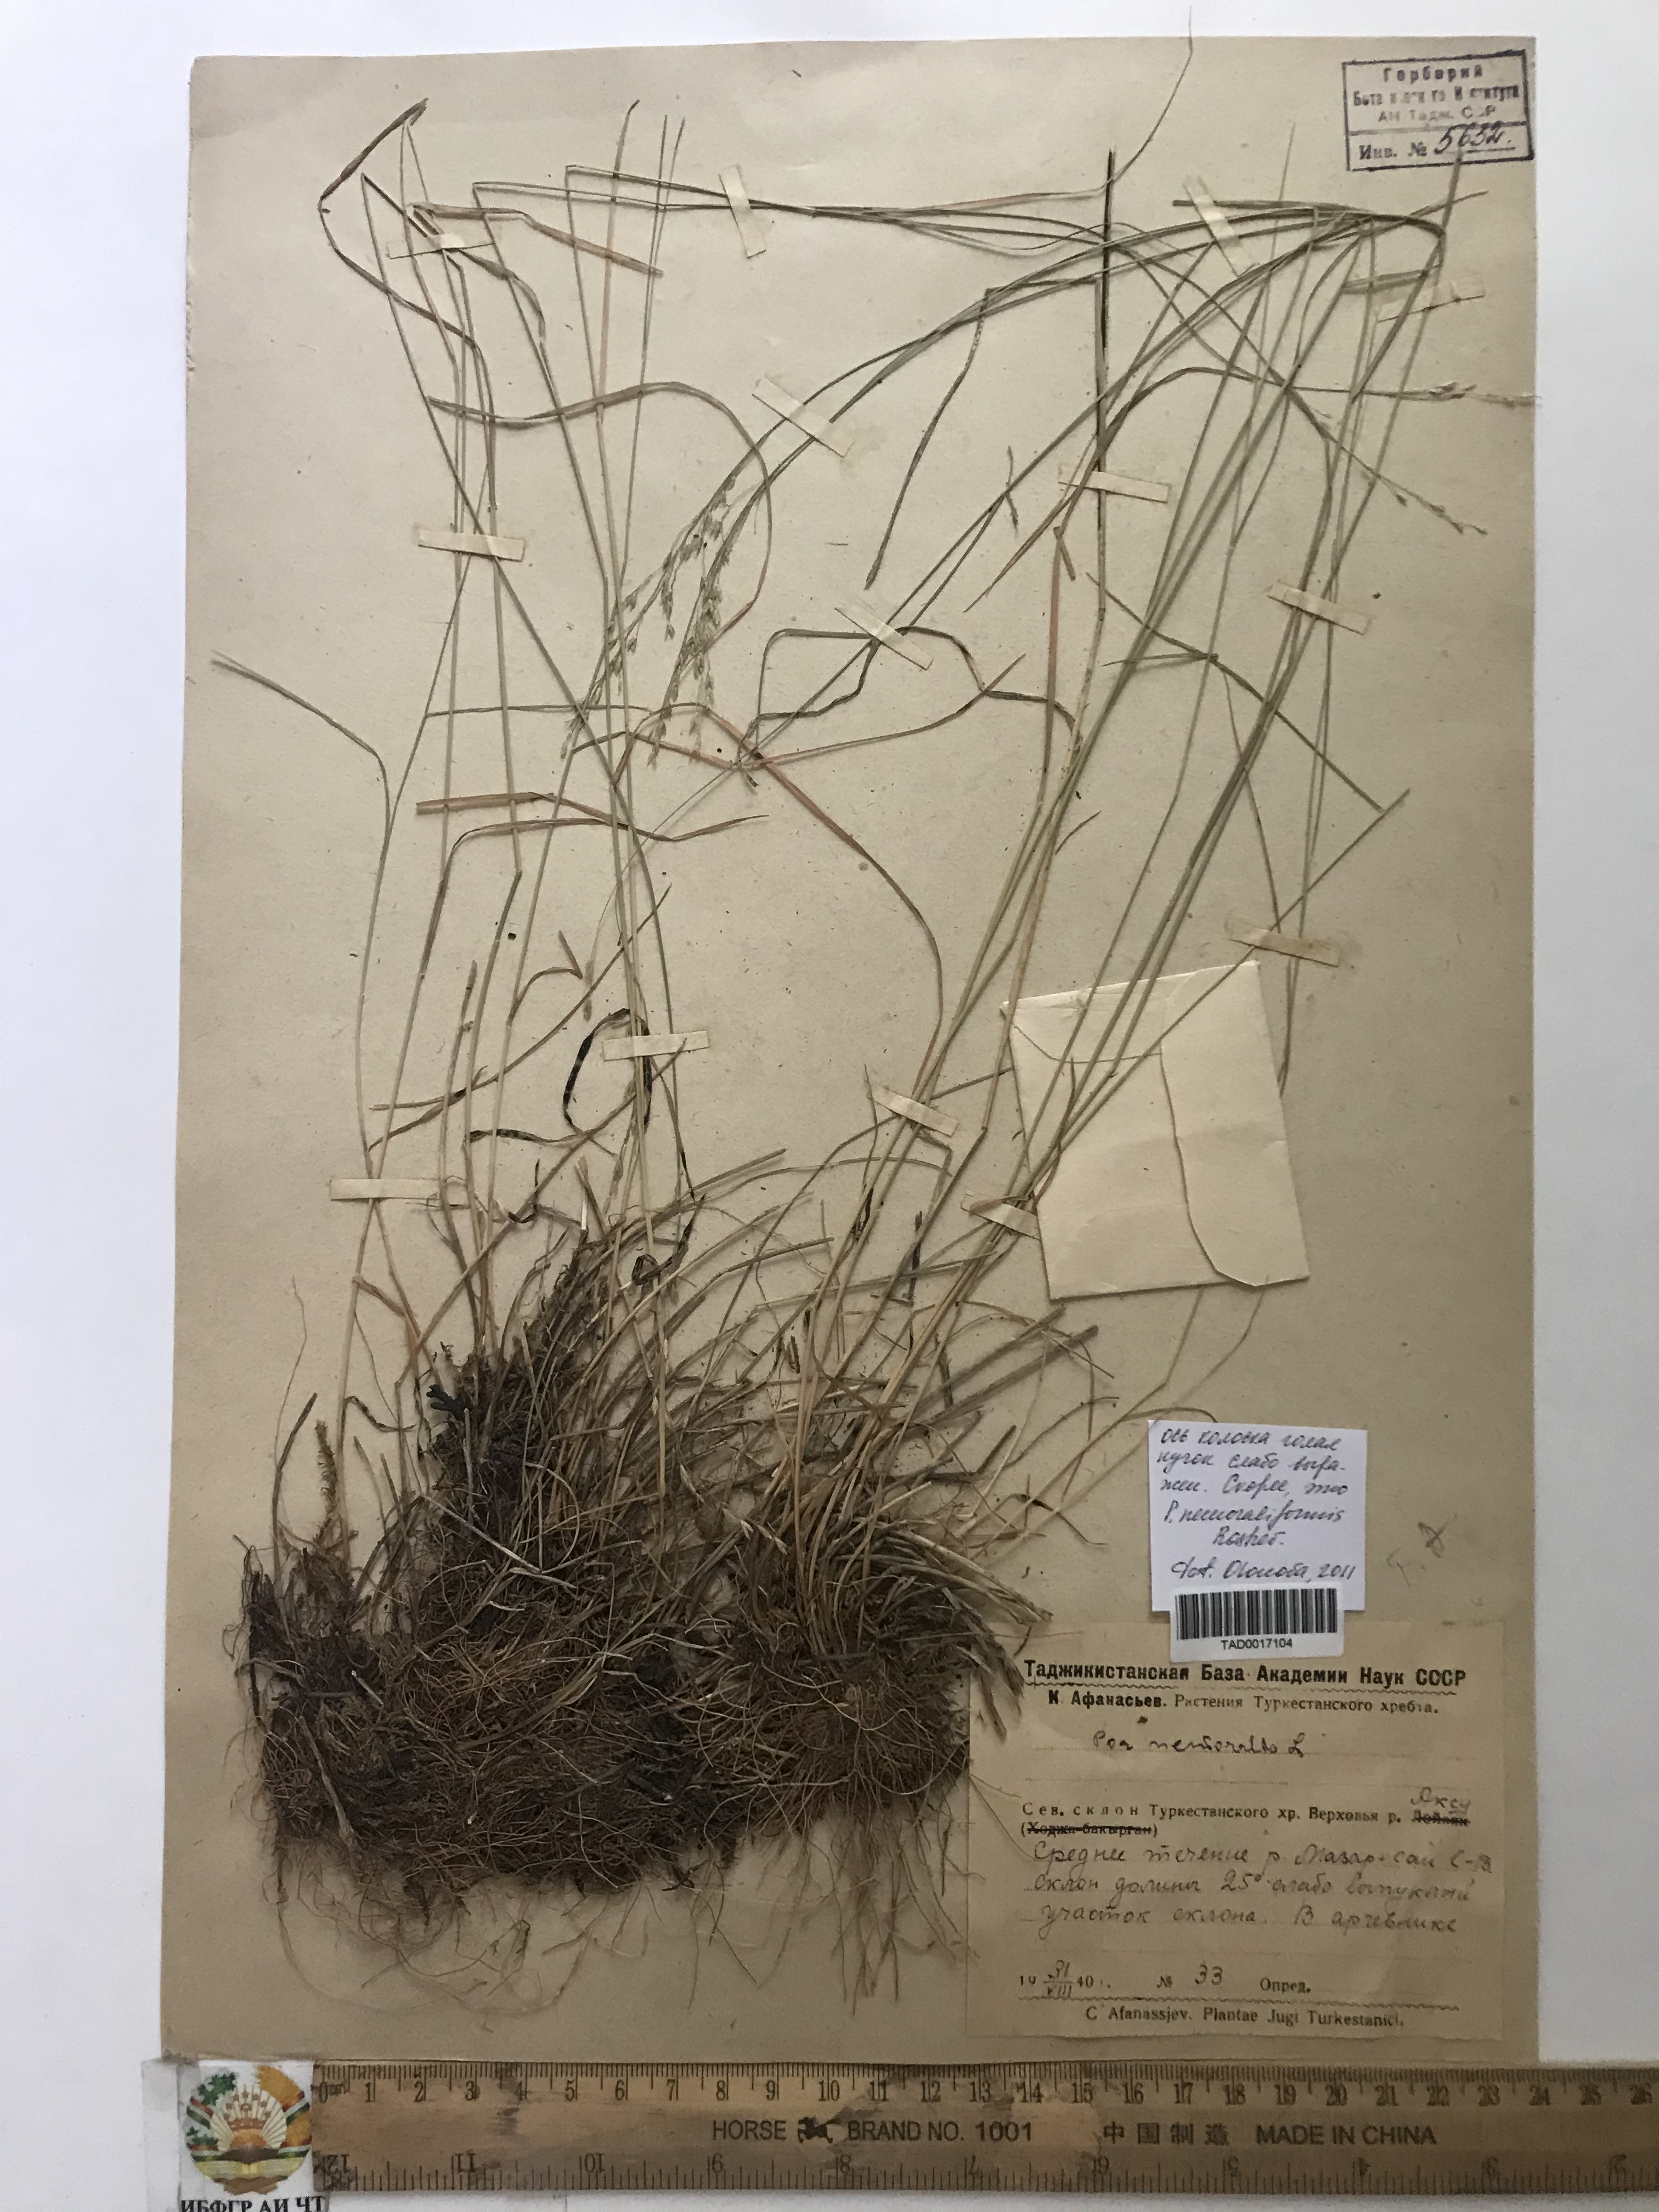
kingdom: Plantae
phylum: Tracheophyta
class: Liliopsida
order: Poales
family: Poaceae
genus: Poa
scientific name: Poa nemoralis
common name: Wood bluegrass
